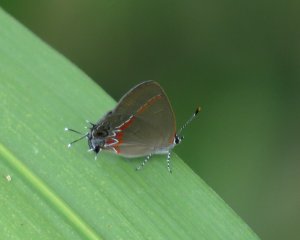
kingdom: Animalia
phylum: Arthropoda
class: Insecta
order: Lepidoptera
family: Lycaenidae
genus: Calycopis
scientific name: Calycopis cecrops
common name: Red-banded Hairstreak
